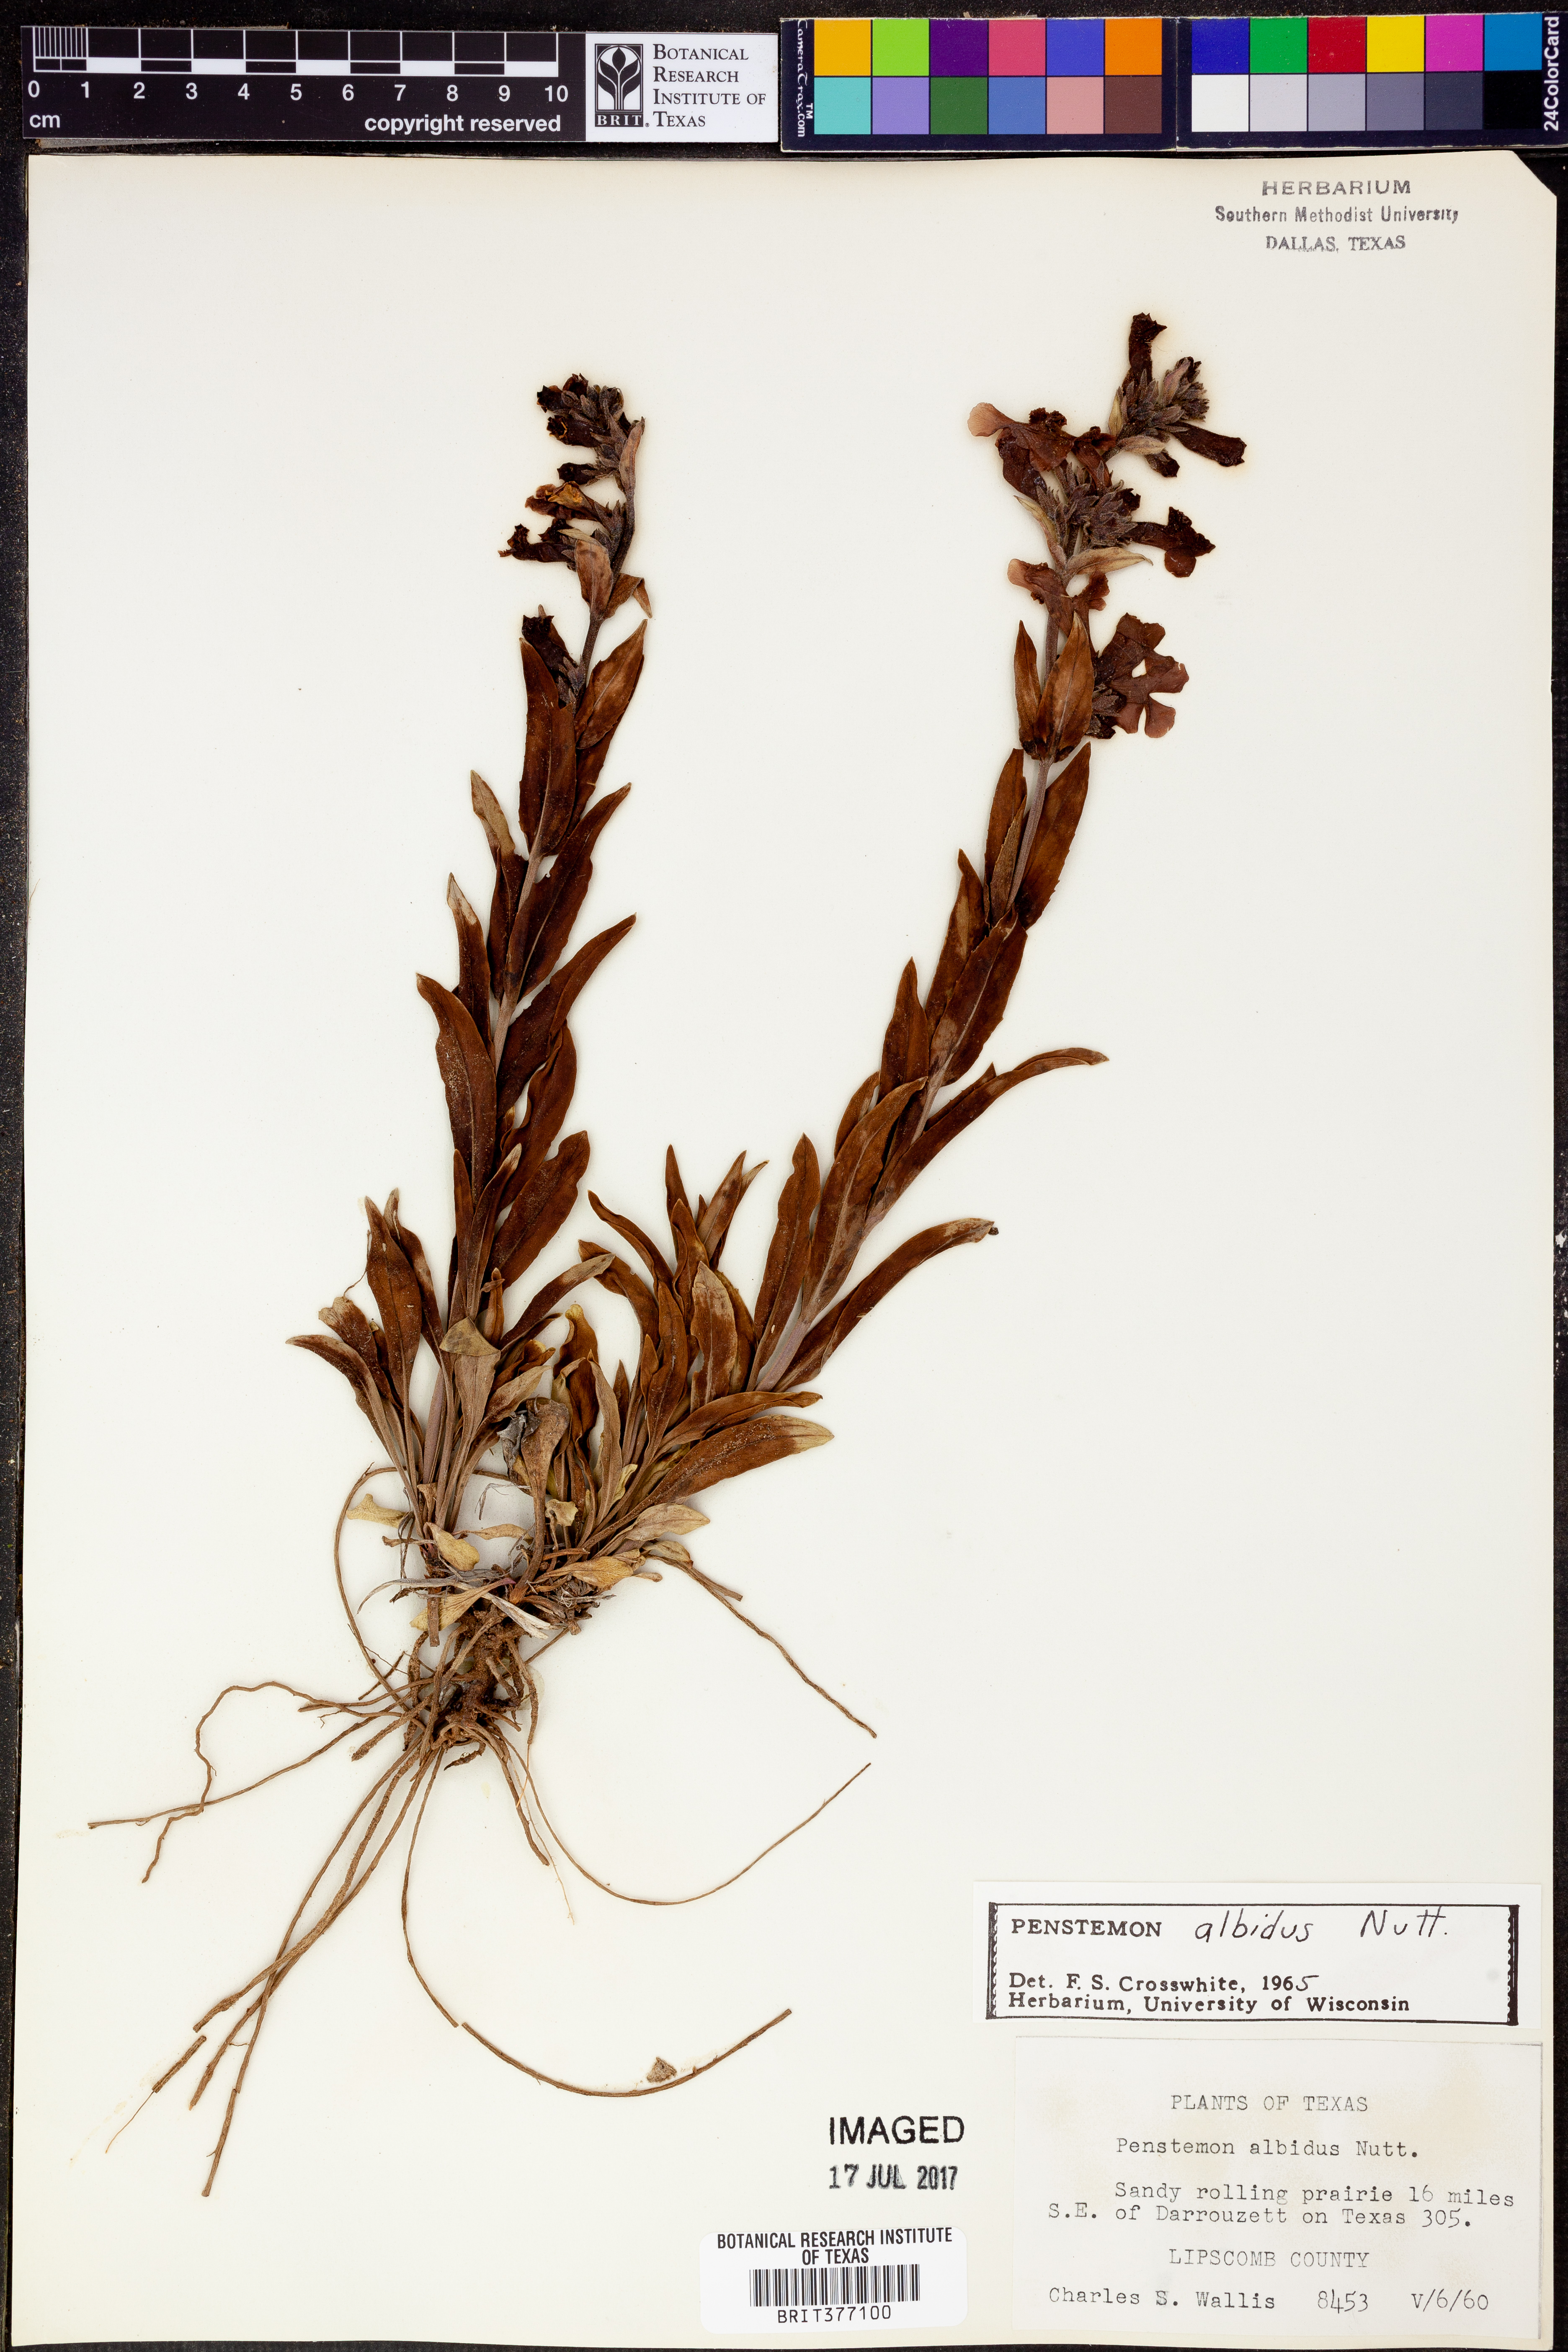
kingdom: Plantae
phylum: Tracheophyta
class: Magnoliopsida
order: Lamiales
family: Plantaginaceae
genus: Penstemon
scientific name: Penstemon albidus
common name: White beardtongue
